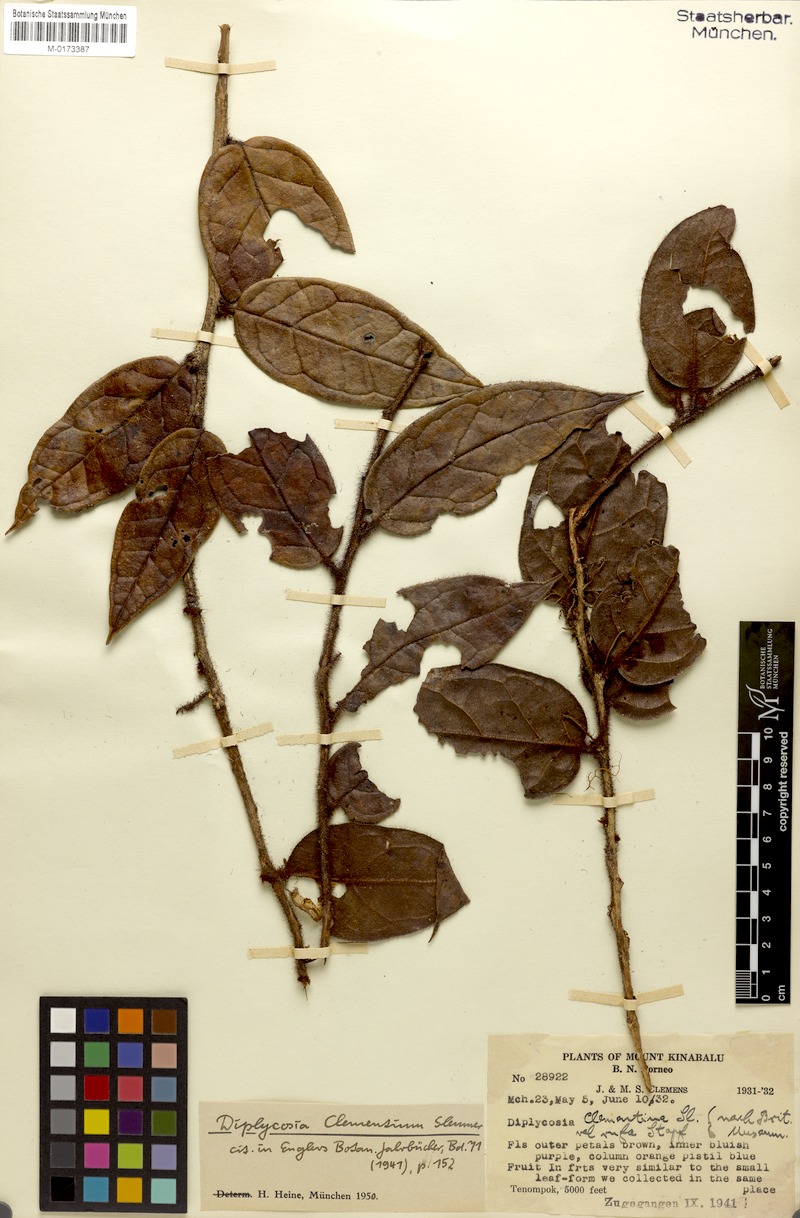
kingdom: Plantae
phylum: Tracheophyta
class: Magnoliopsida
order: Ericales
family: Ericaceae
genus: Gaultheria
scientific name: Gaultheria clementium
